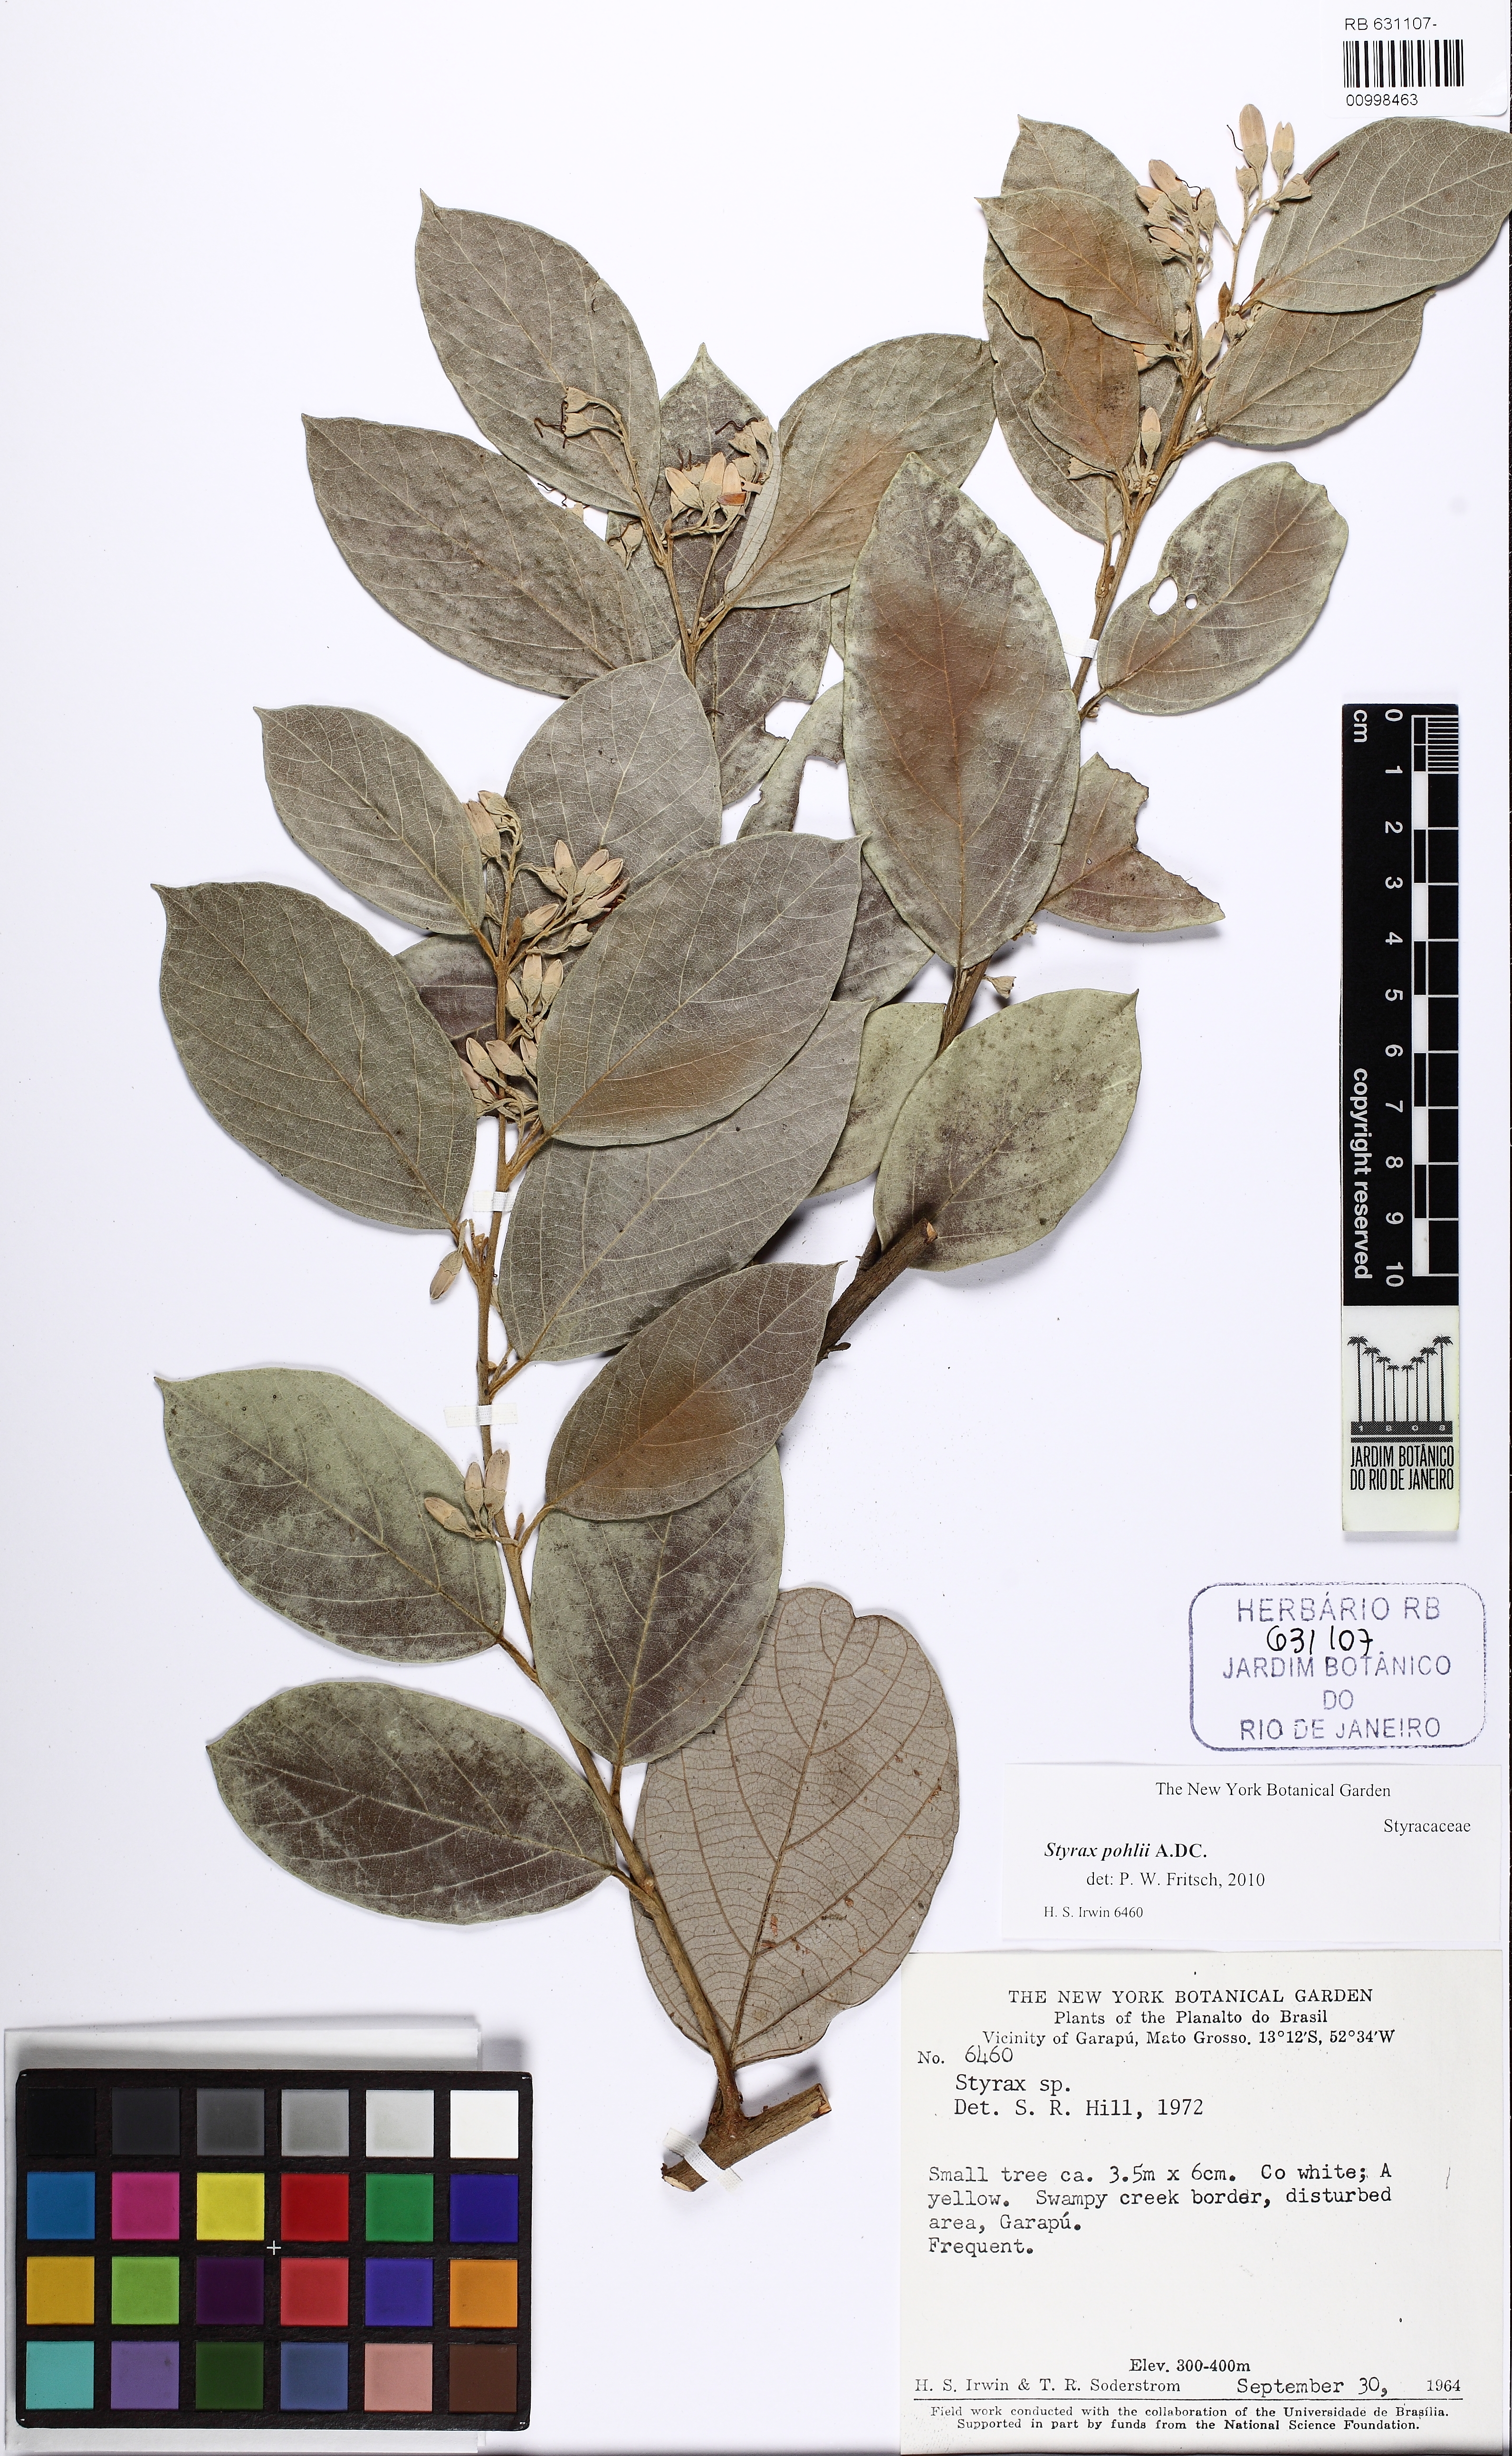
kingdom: Plantae
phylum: Tracheophyta
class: Magnoliopsida
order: Ericales
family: Styracaceae
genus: Styrax
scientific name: Styrax pohlii
